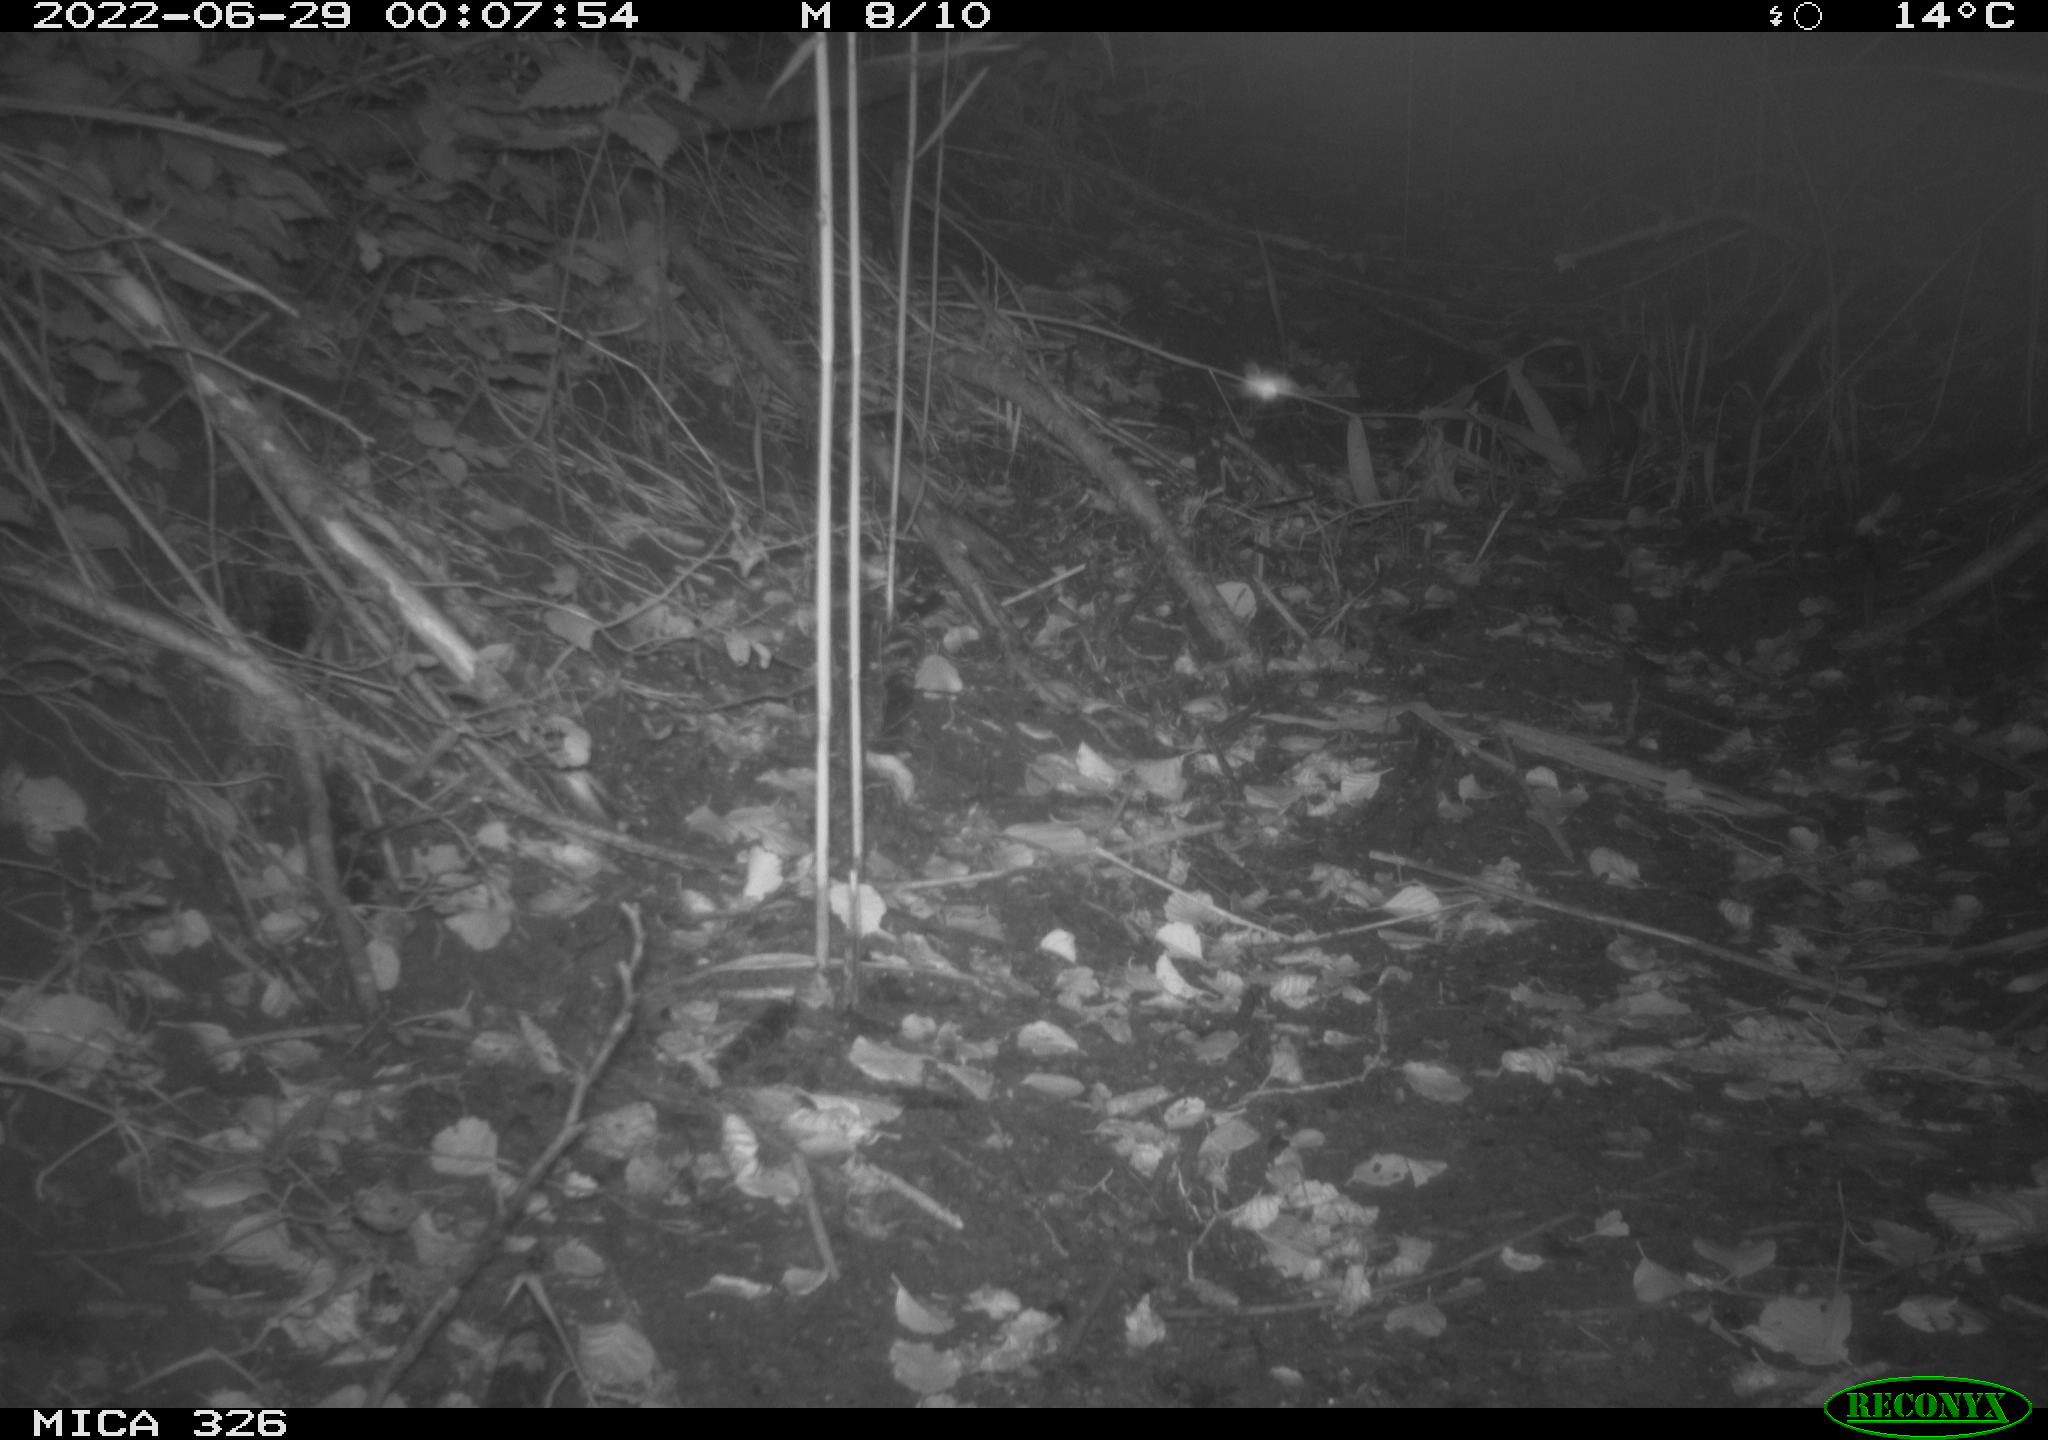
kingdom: Animalia
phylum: Chordata
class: Mammalia
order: Rodentia
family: Muridae
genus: Rattus
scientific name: Rattus norvegicus
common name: Brown rat
